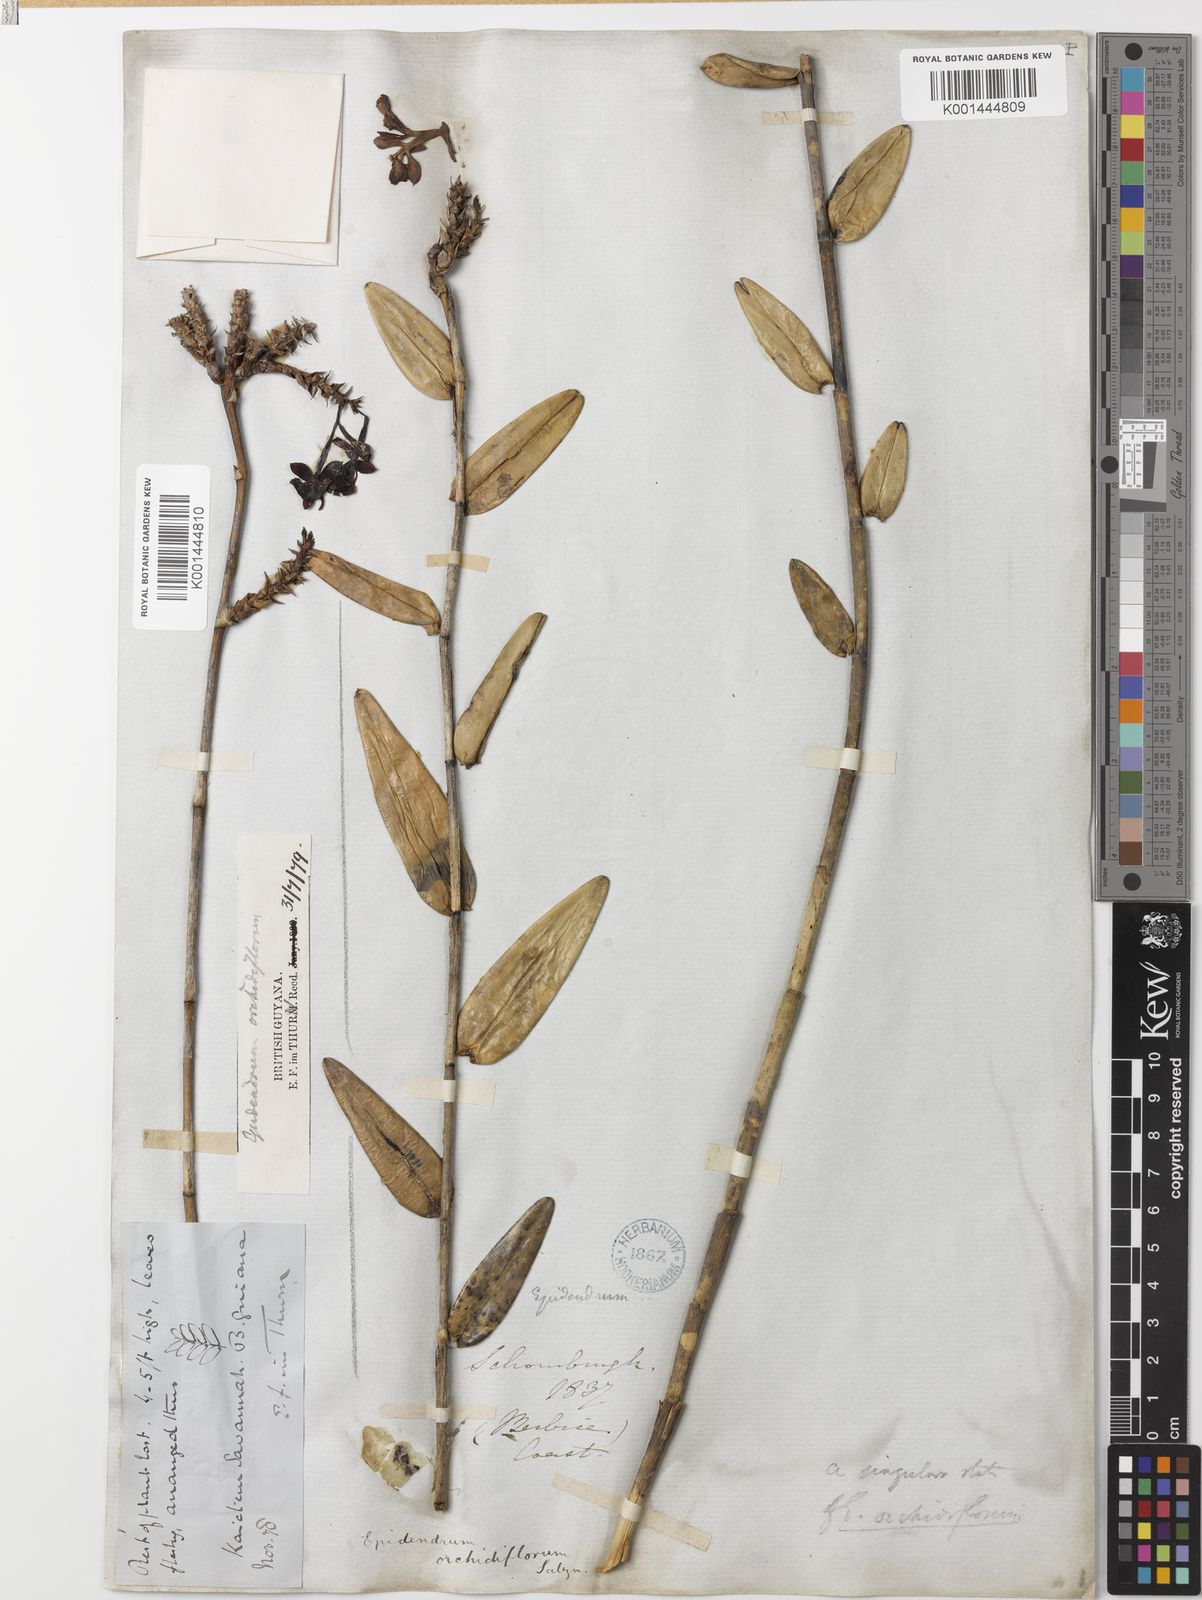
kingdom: Plantae
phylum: Tracheophyta
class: Liliopsida
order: Asparagales
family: Orchidaceae
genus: Epidendrum
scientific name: Epidendrum orchidiflorum
